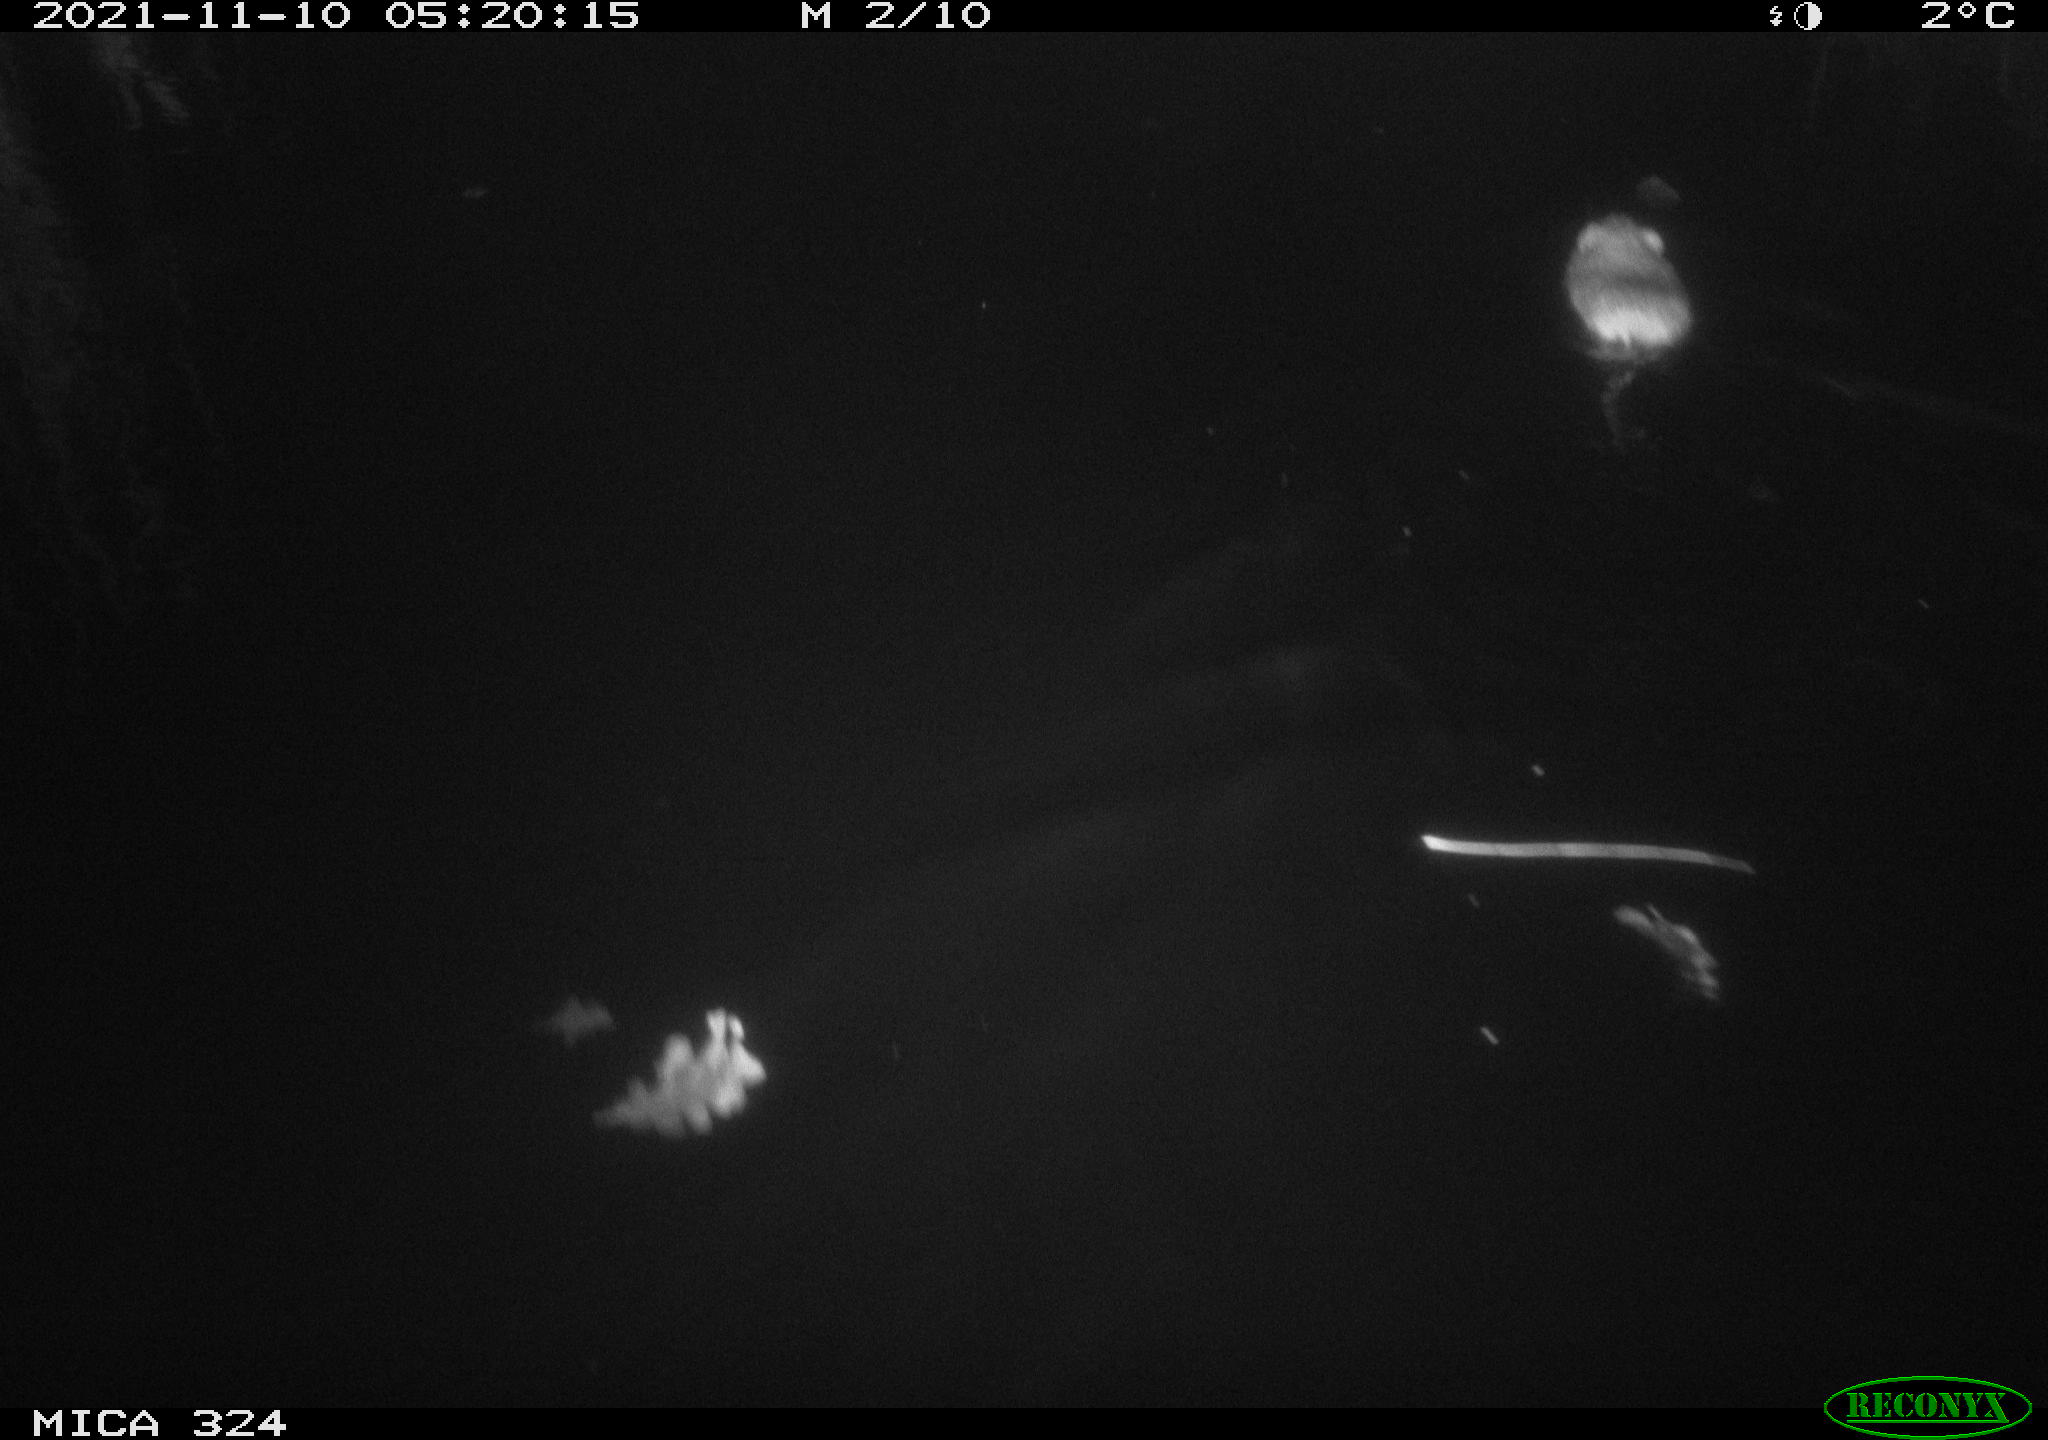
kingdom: Animalia
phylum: Chordata
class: Mammalia
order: Rodentia
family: Cricetidae
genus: Ondatra
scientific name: Ondatra zibethicus
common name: Muskrat
